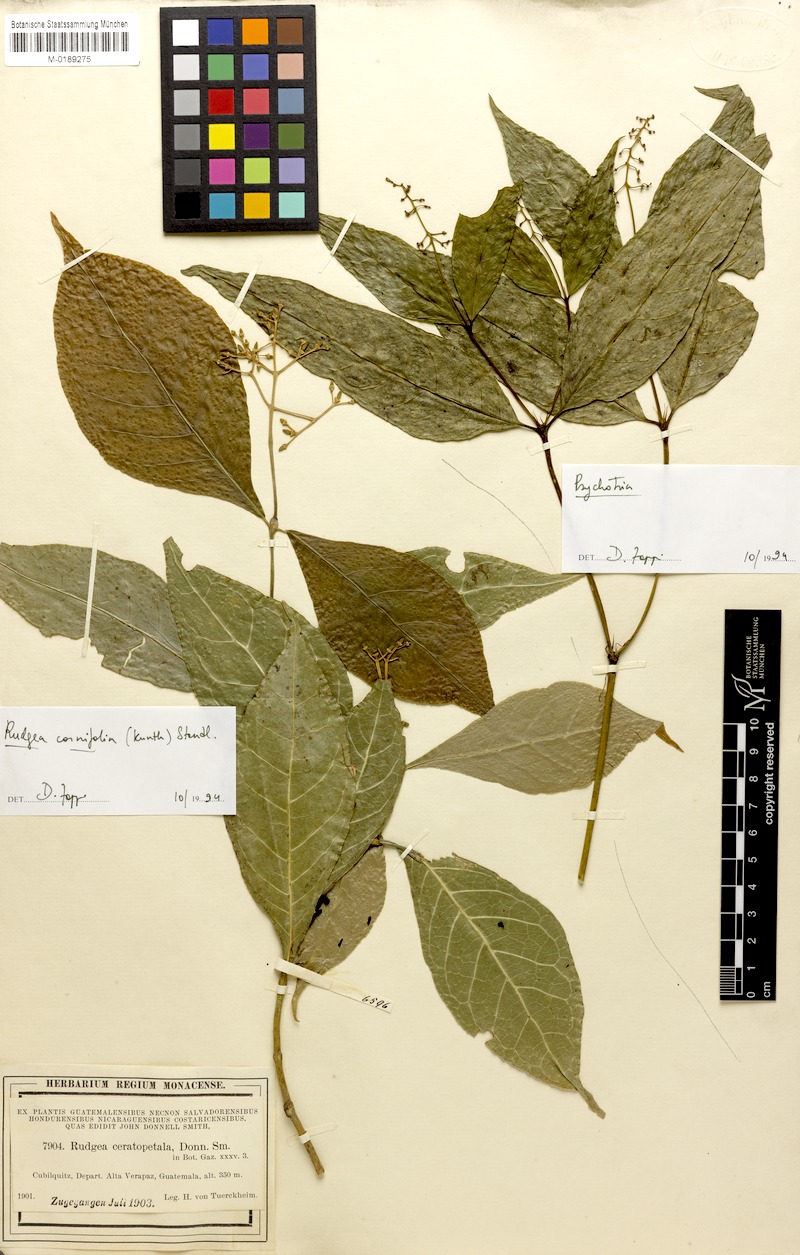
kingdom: Plantae
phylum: Tracheophyta
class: Magnoliopsida
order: Gentianales
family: Rubiaceae
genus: Rudgea
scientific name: Rudgea cornifolia
